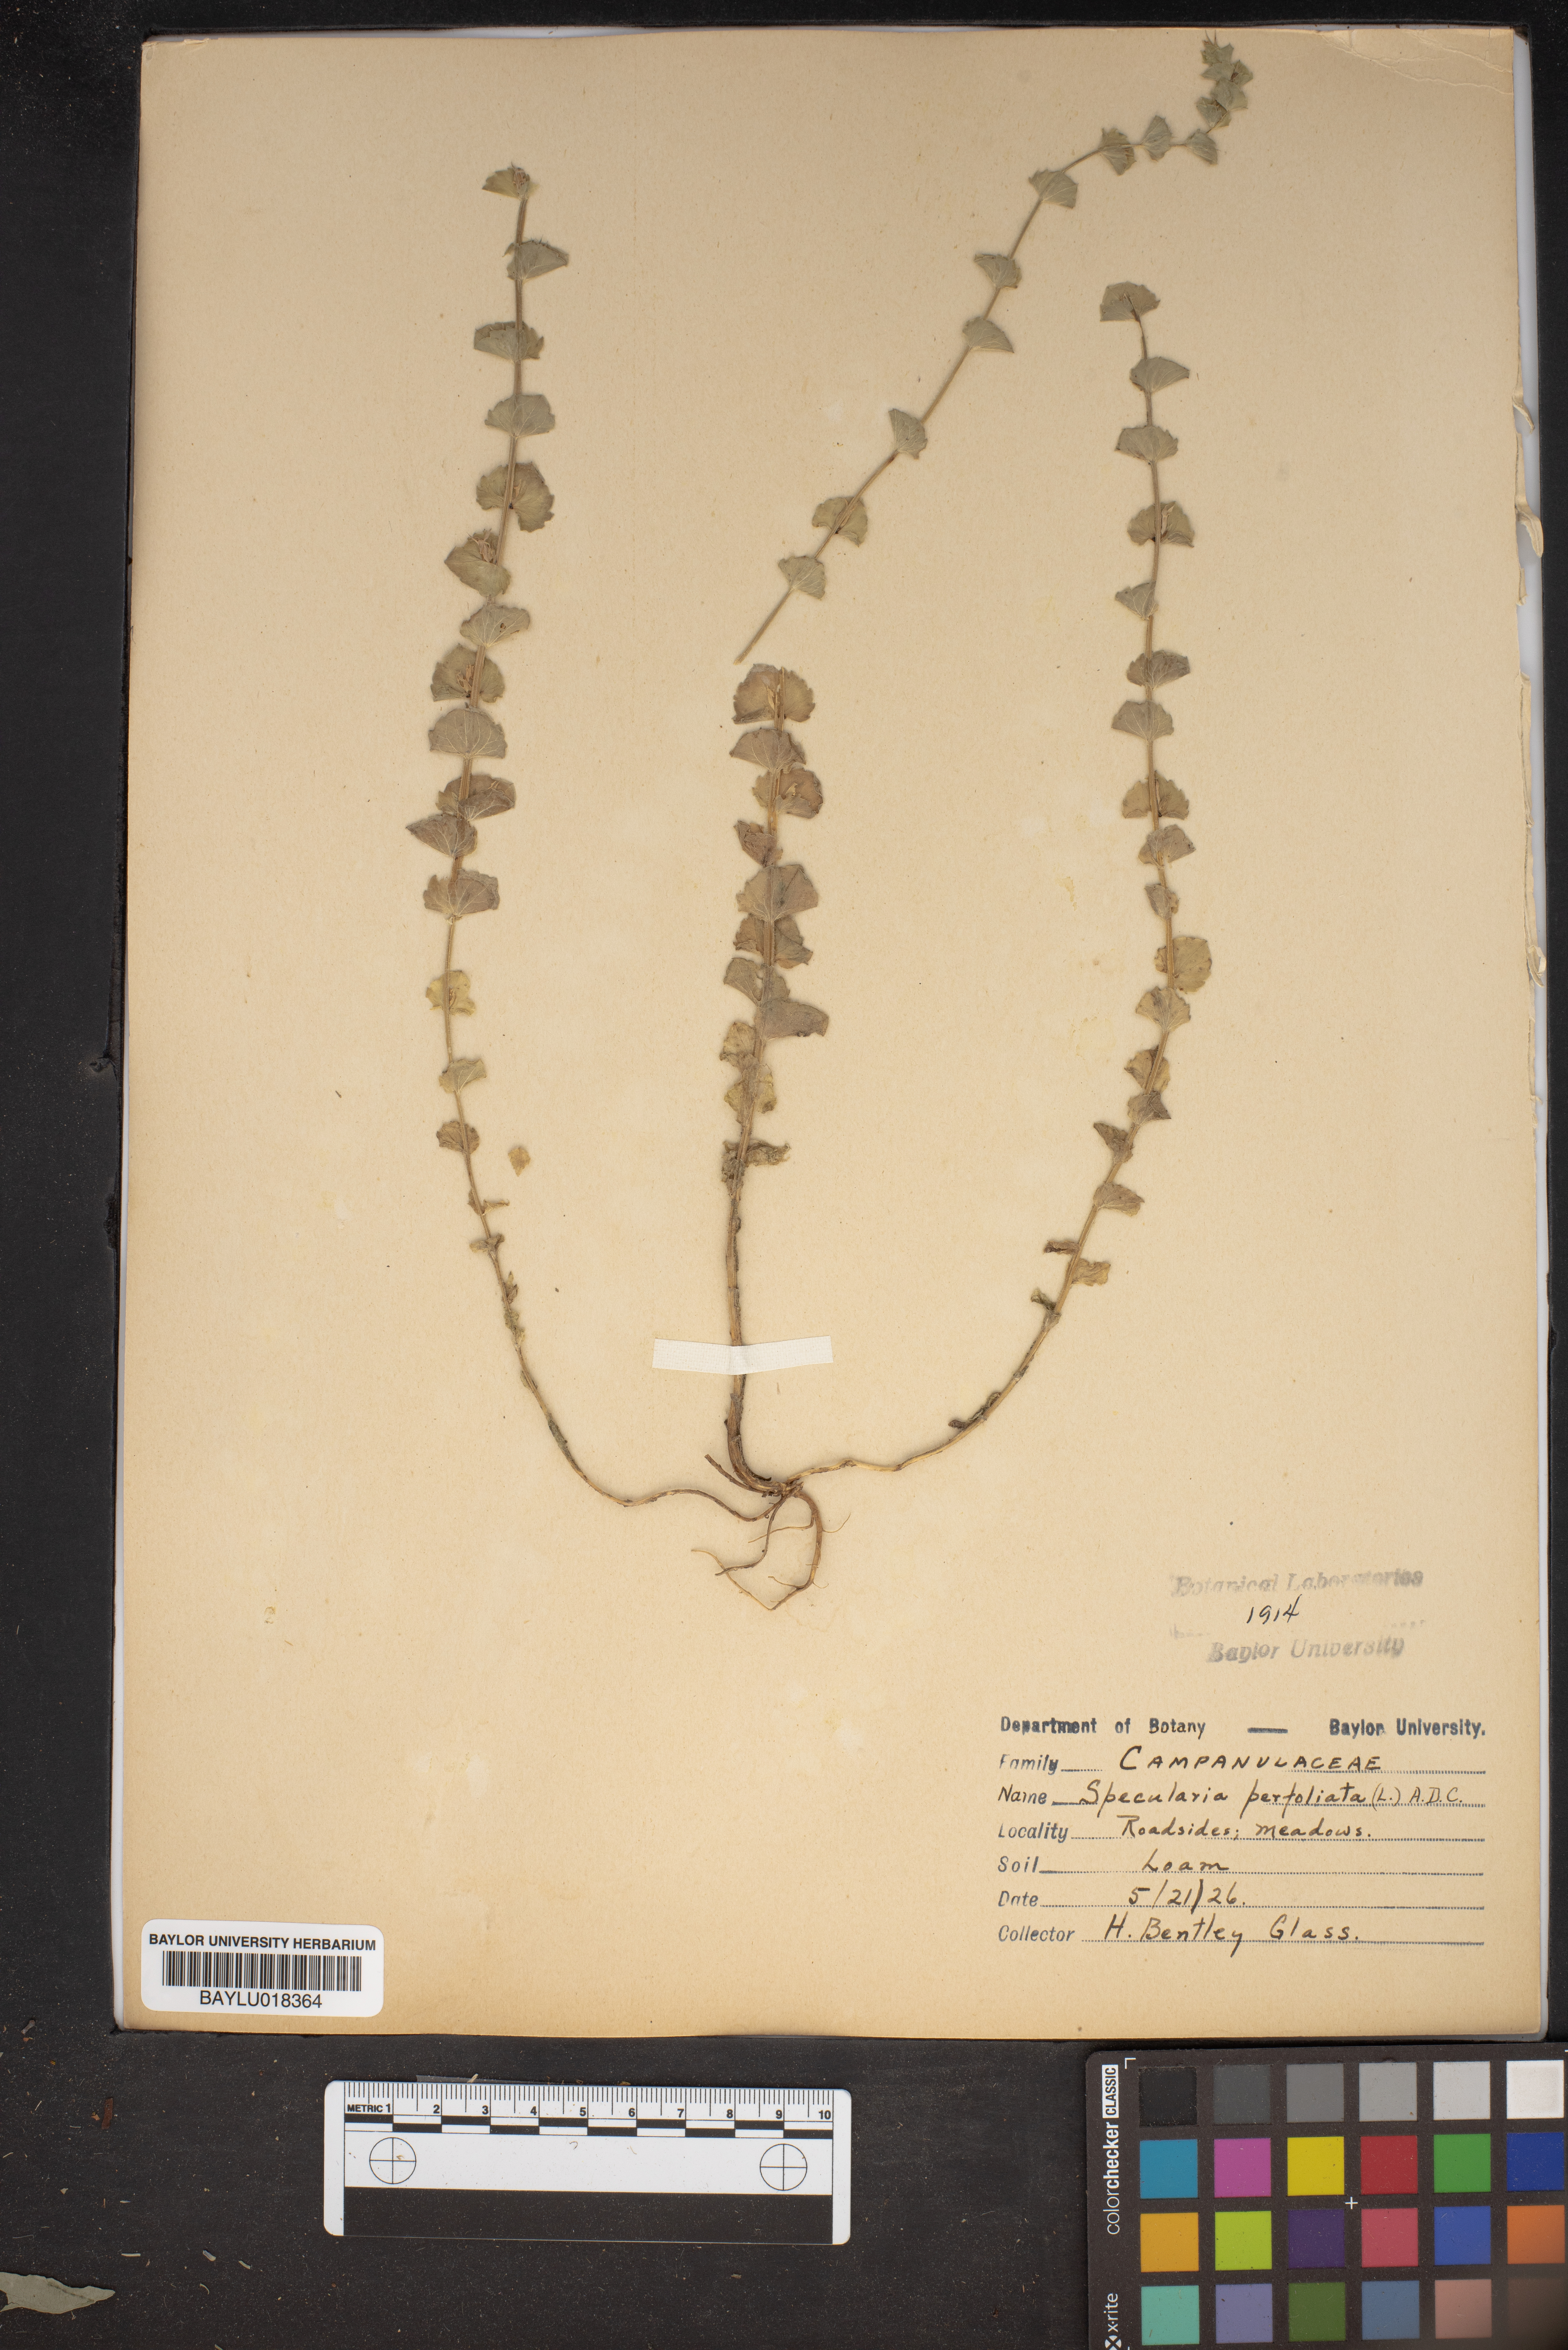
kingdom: Plantae
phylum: Tracheophyta
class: Magnoliopsida
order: Asterales
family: Campanulaceae
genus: Triodanis
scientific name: Triodanis perfoliata
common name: Clasping venus' looking-glass
